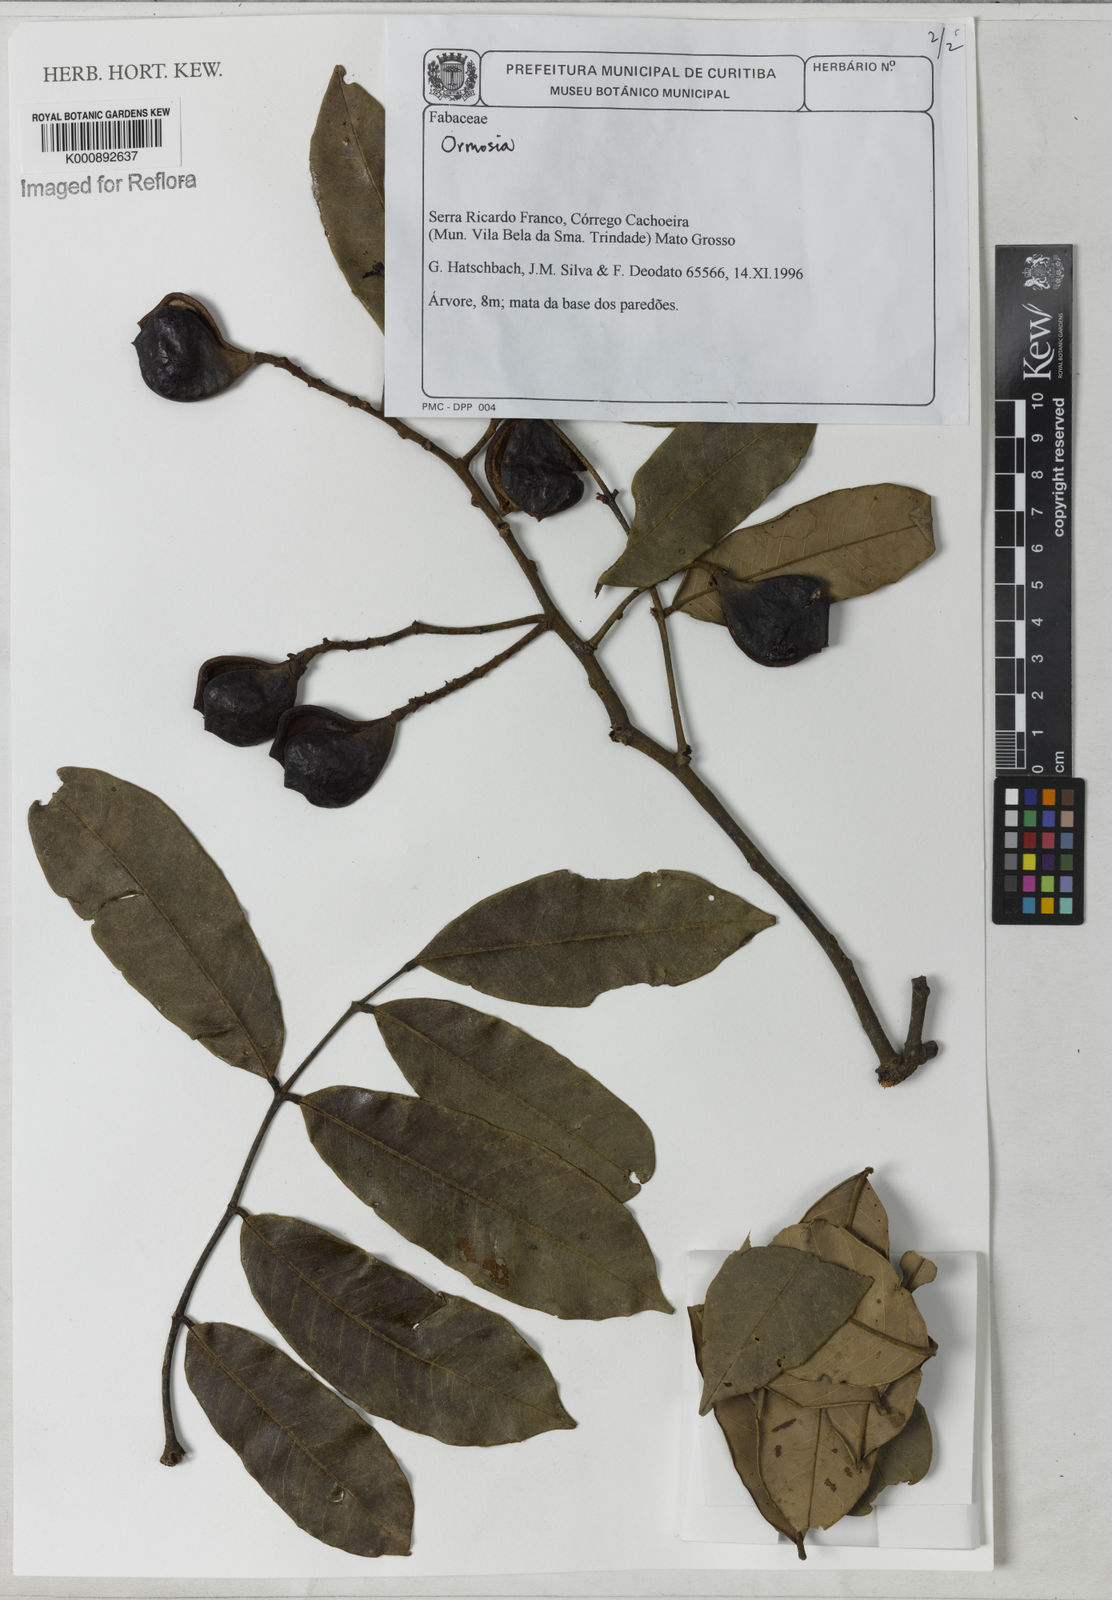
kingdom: Plantae
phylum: Tracheophyta
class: Magnoliopsida
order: Fabales
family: Fabaceae
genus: Ormosia
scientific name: Ormosia
